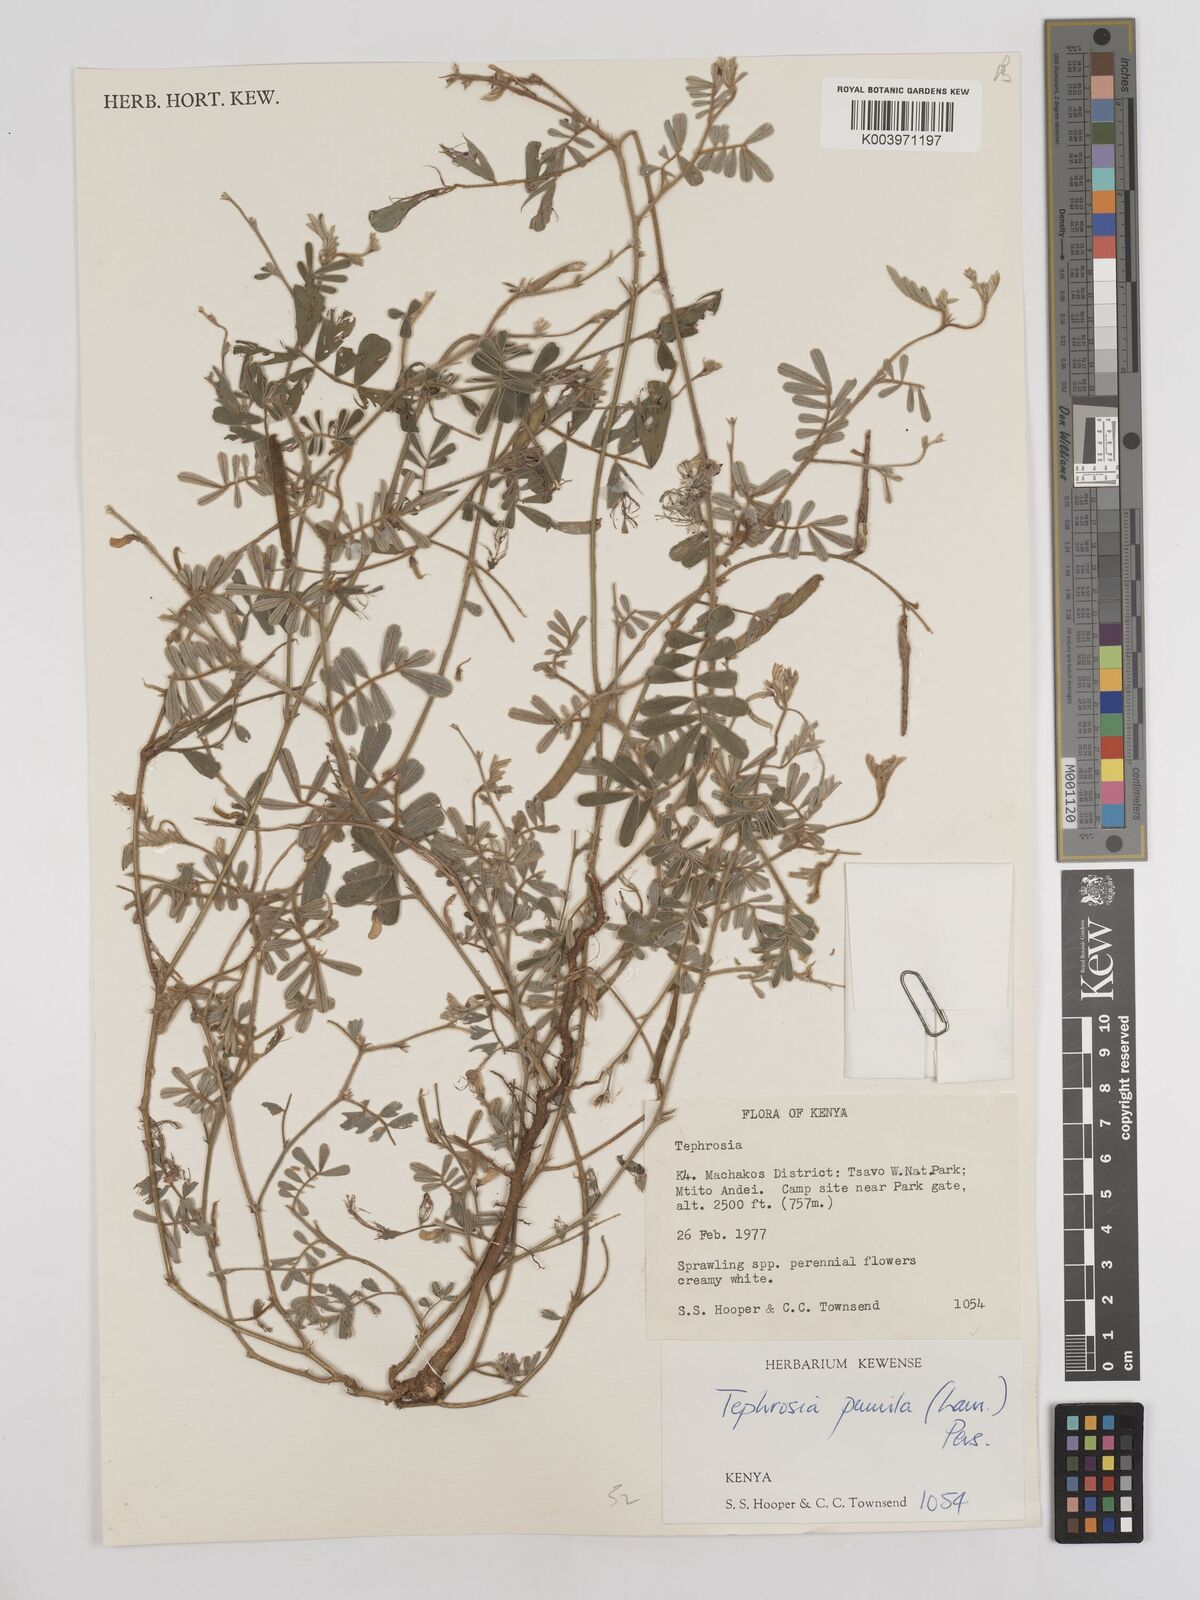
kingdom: Plantae
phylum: Tracheophyta
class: Magnoliopsida
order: Fabales
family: Fabaceae
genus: Tephrosia
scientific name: Tephrosia pumila
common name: Indigo sauvage
